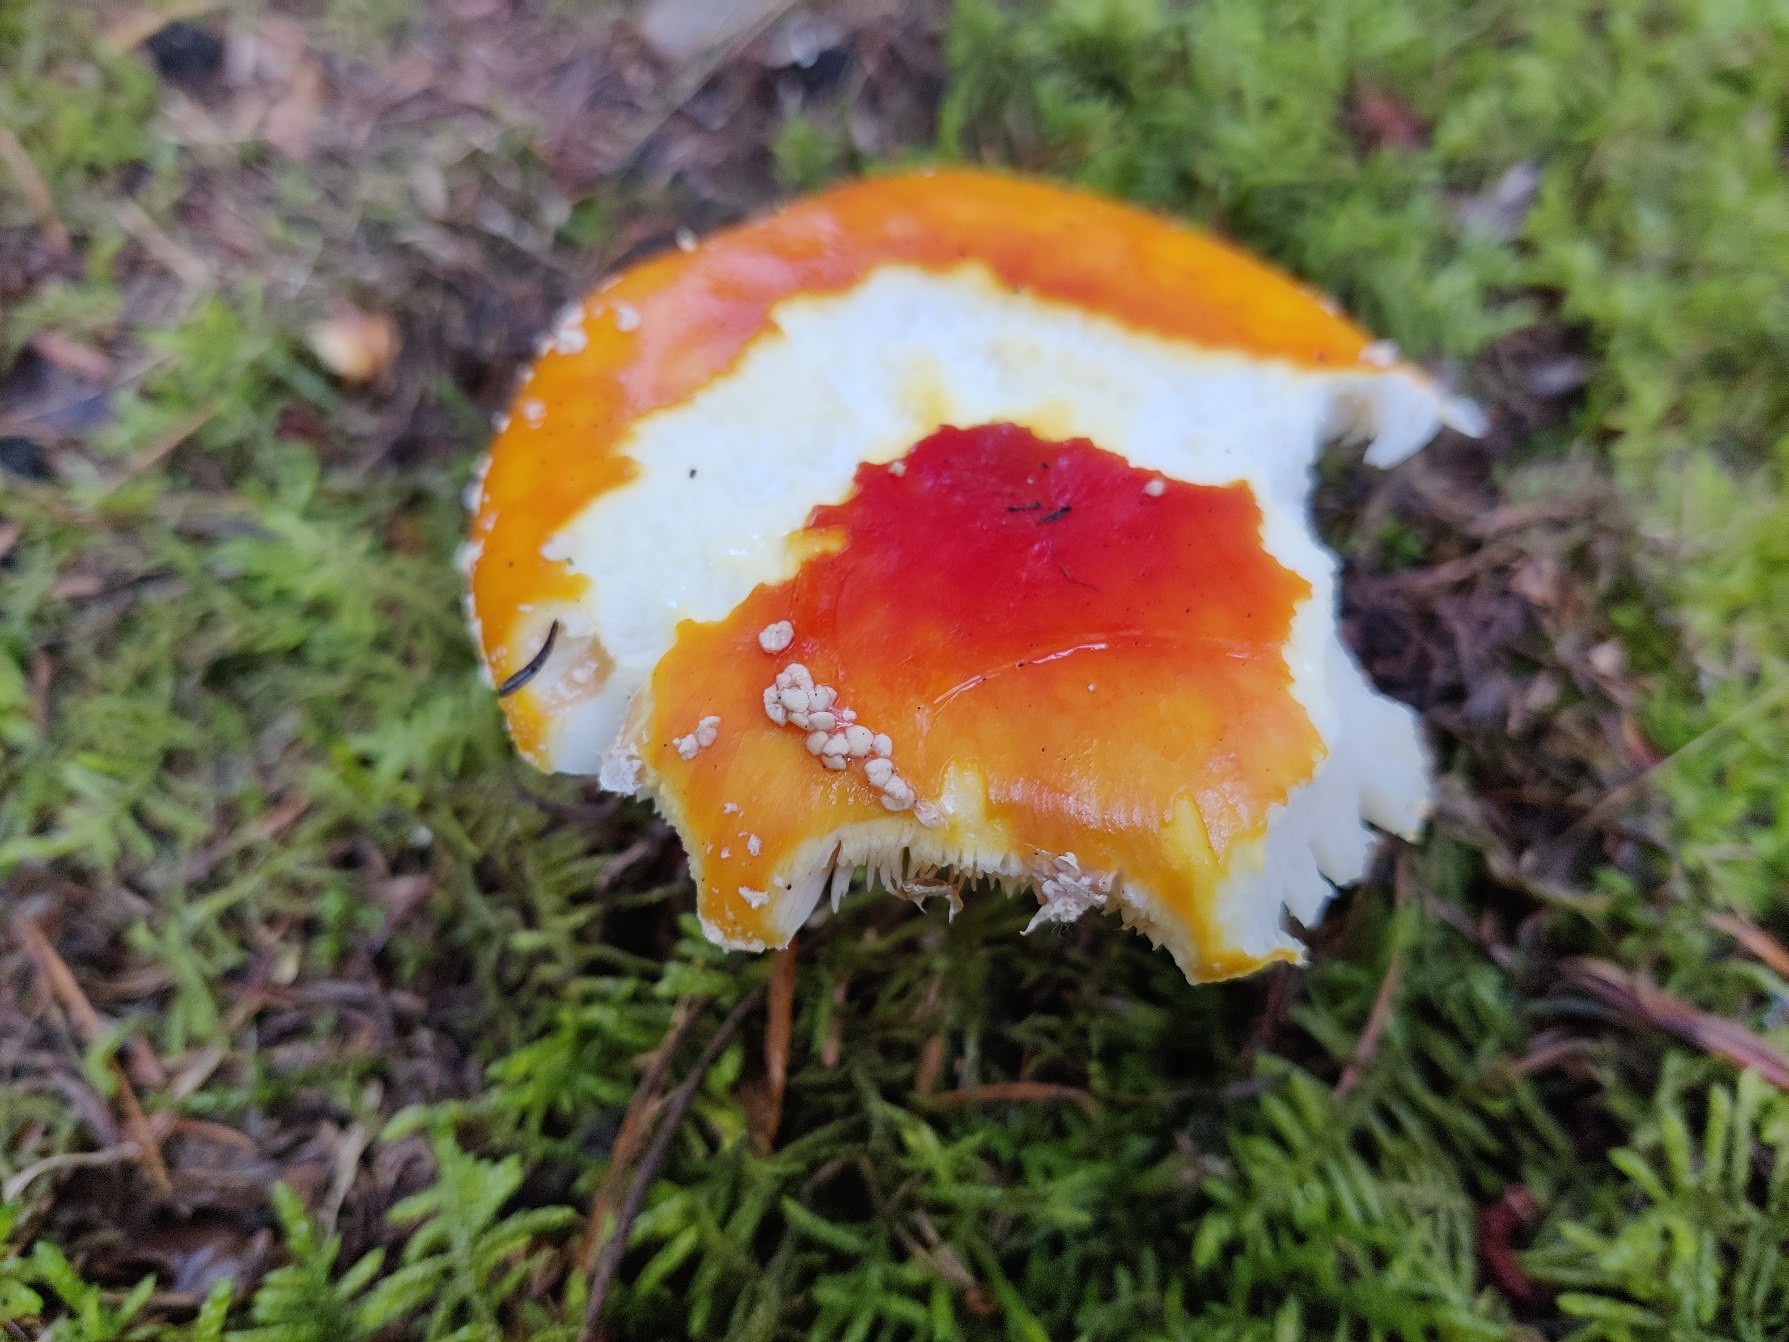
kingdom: Fungi
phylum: Basidiomycota
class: Agaricomycetes
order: Agaricales
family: Amanitaceae
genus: Amanita
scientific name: Amanita muscaria
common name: Rød fluesvamp
